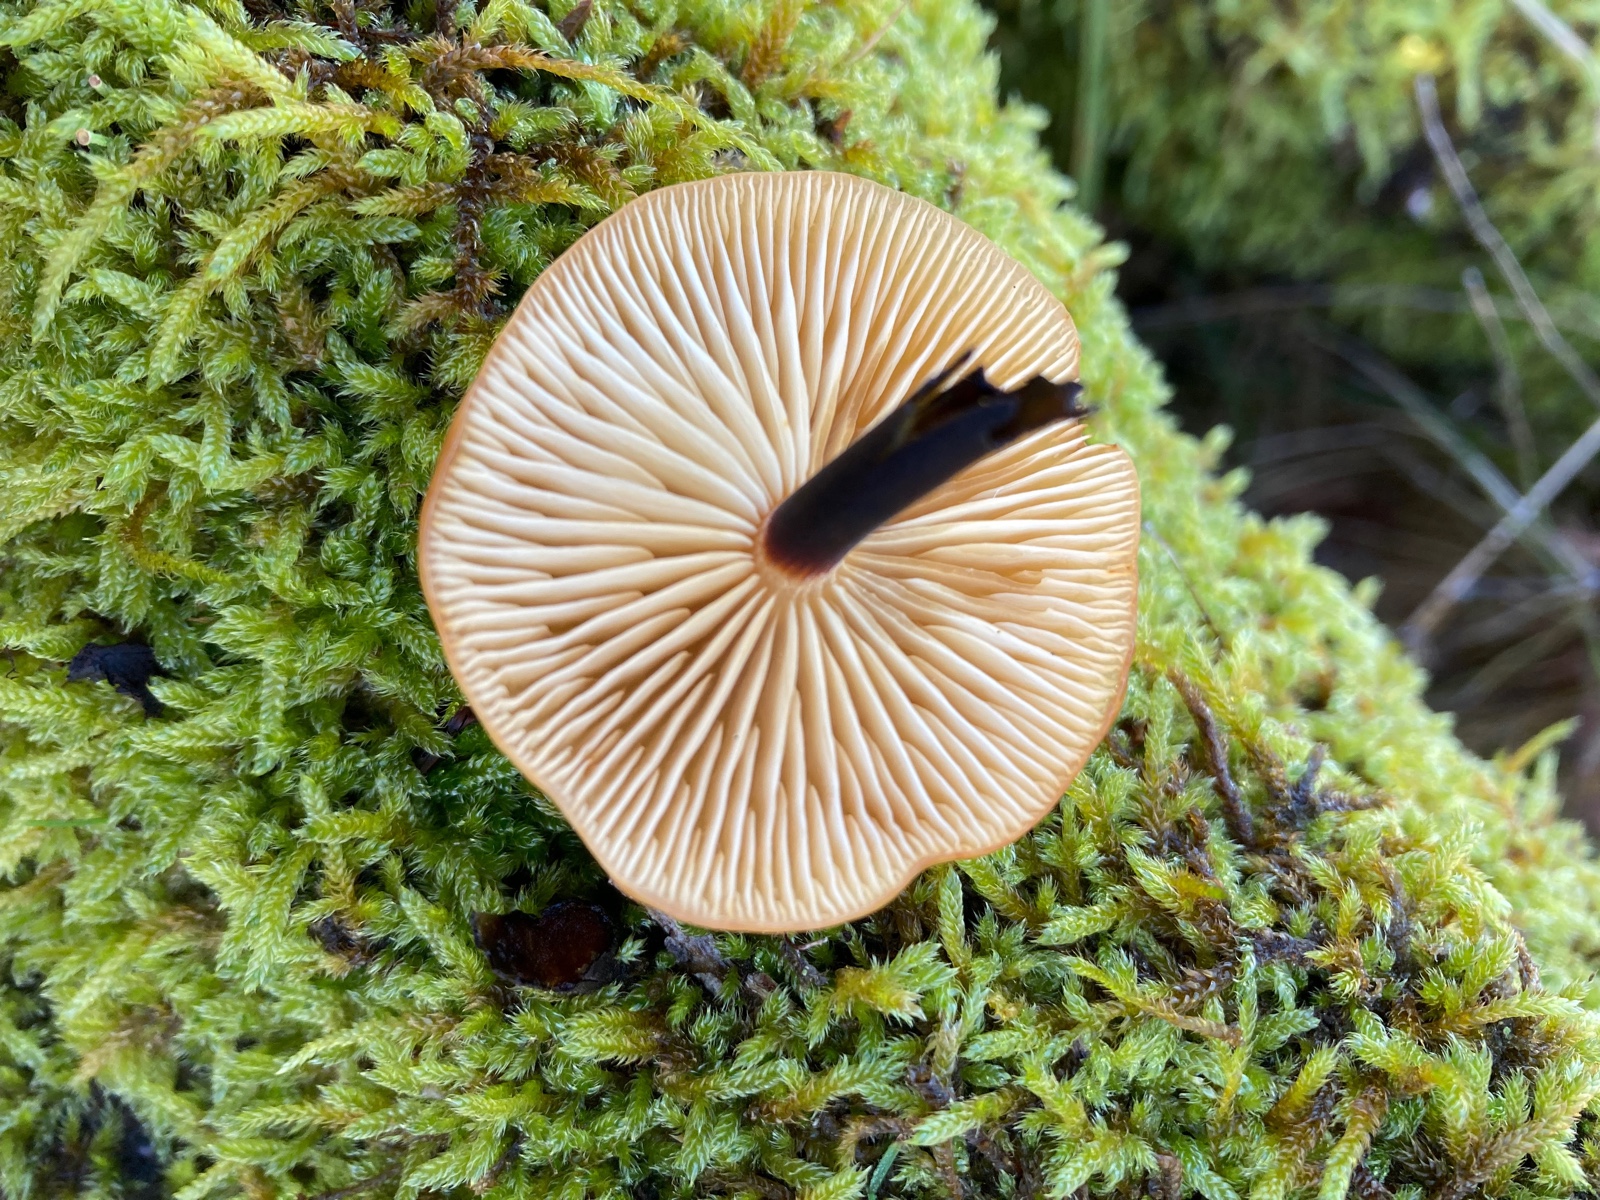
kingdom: Fungi
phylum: Basidiomycota
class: Agaricomycetes
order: Agaricales
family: Physalacriaceae
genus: Flammulina
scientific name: Flammulina
